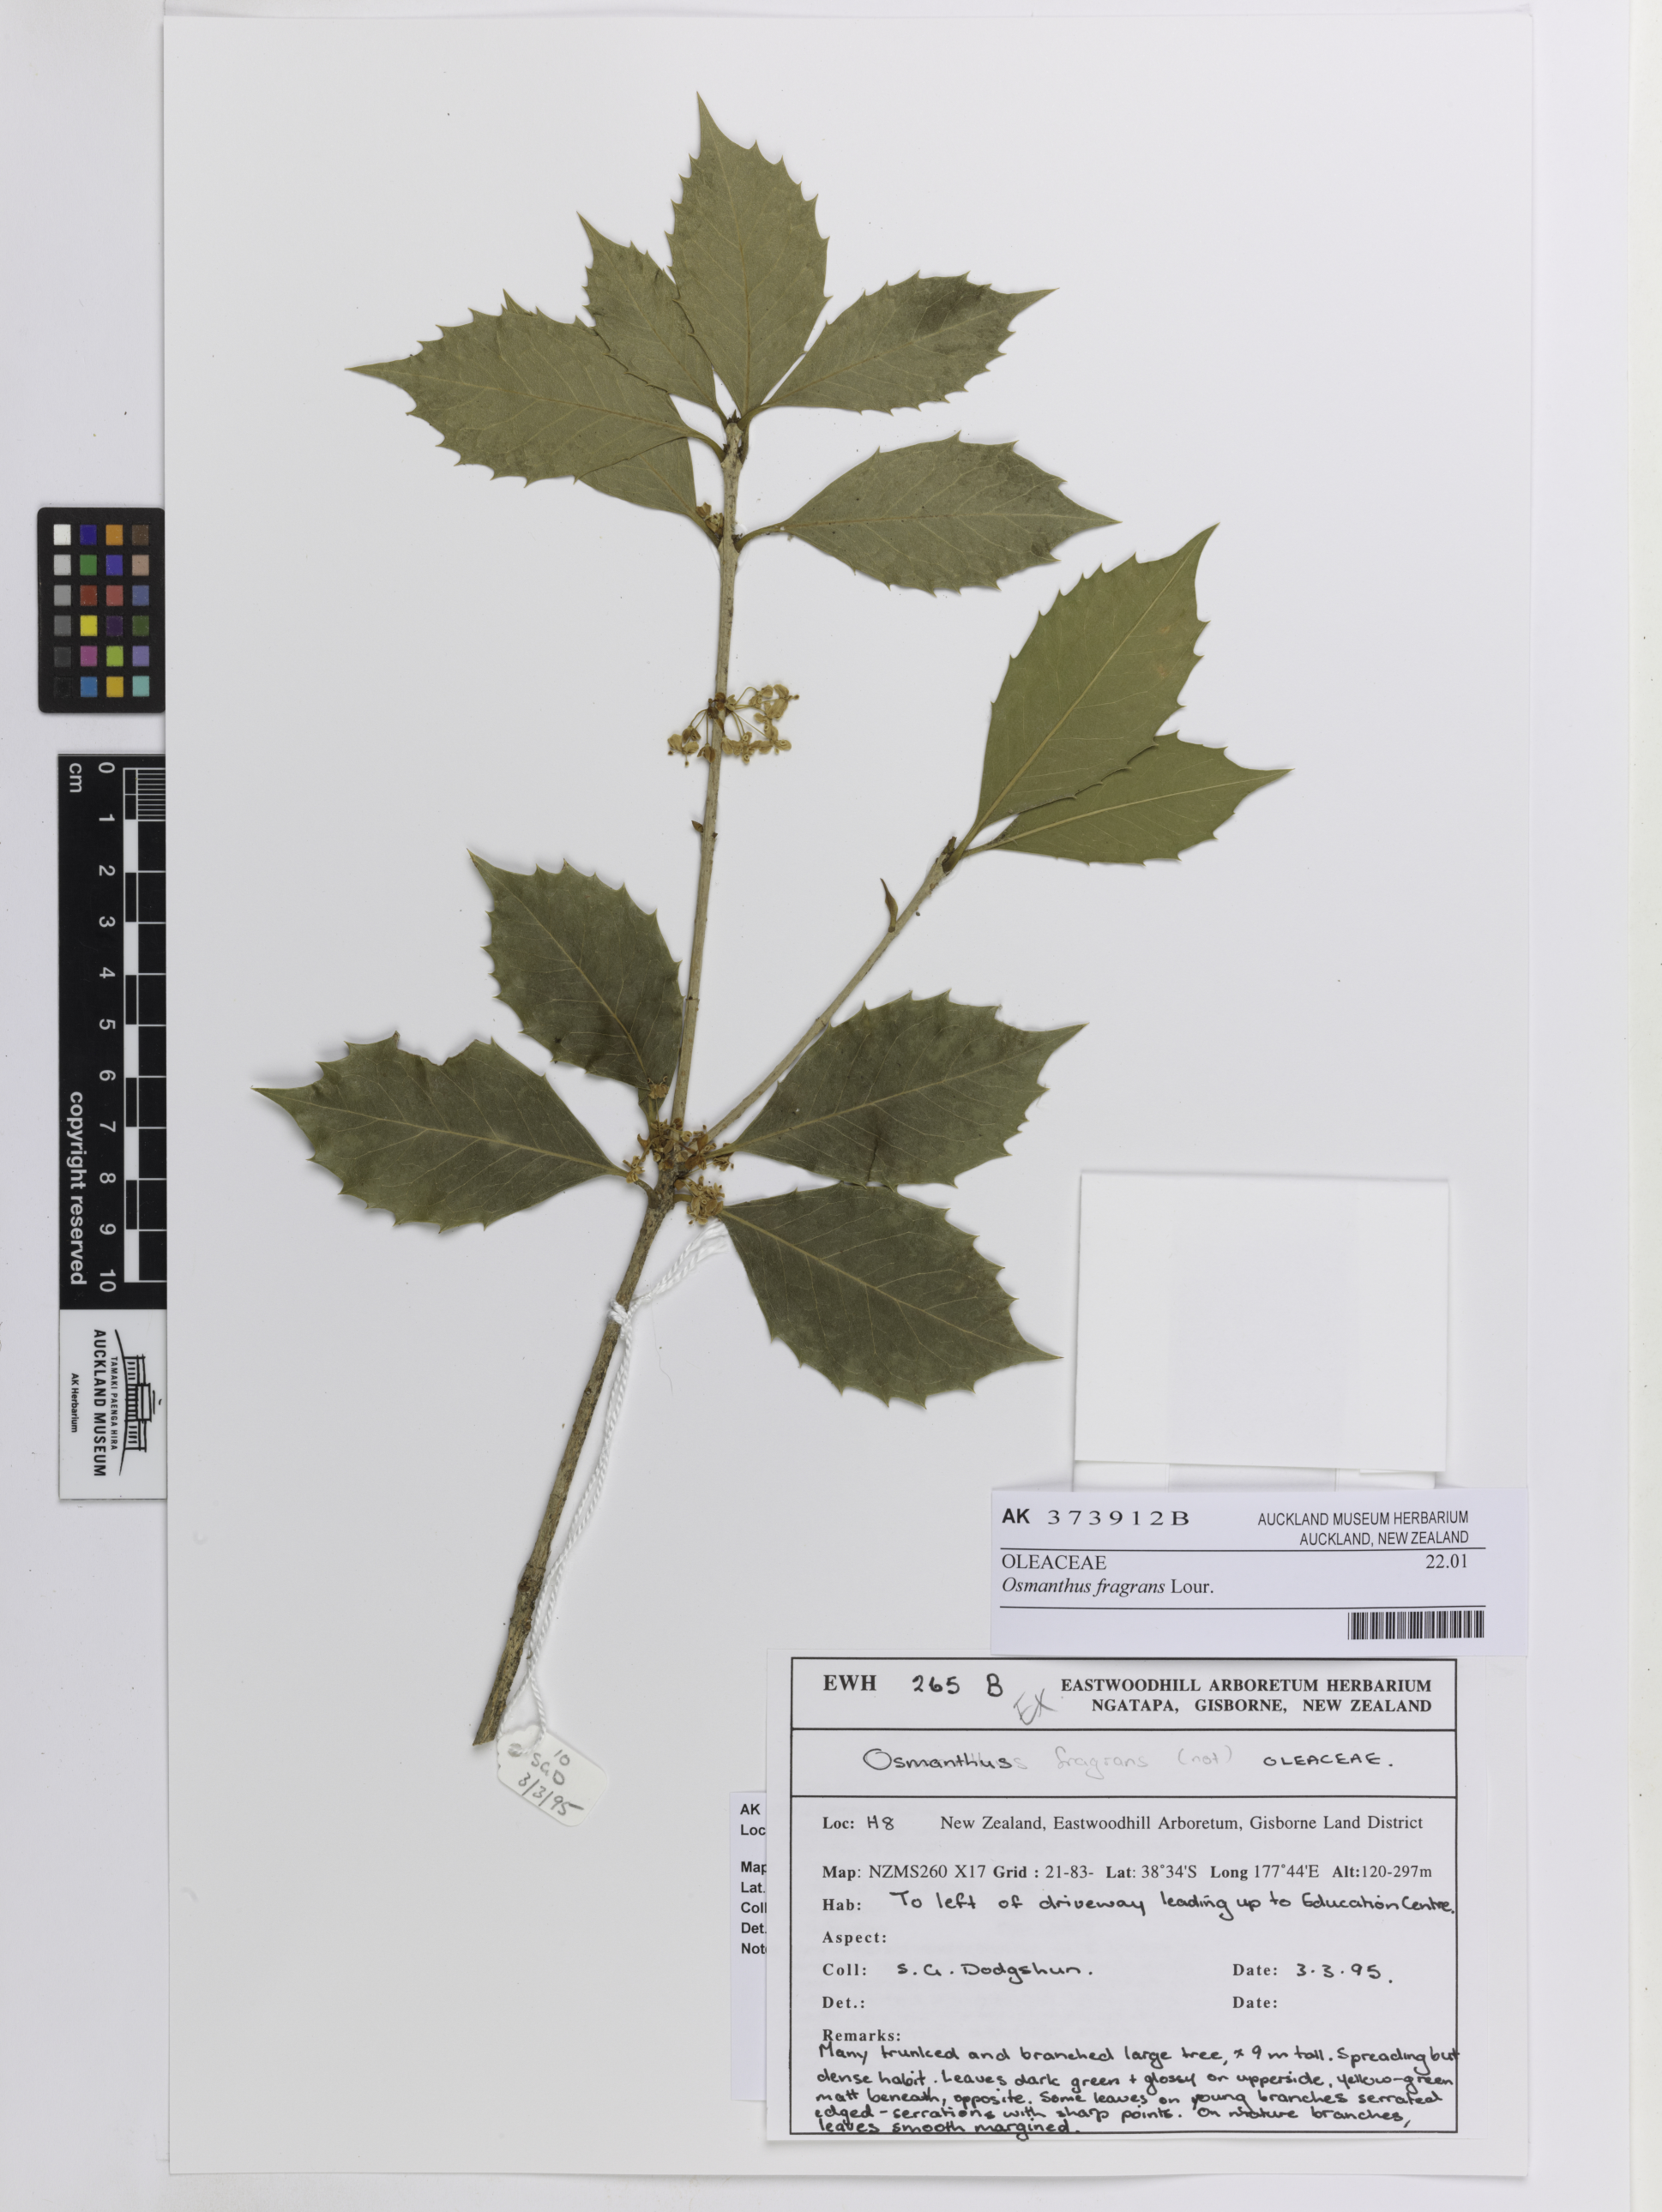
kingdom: Plantae
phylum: Tracheophyta
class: Magnoliopsida
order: Lamiales
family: Oleaceae
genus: Osmanthus
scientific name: Osmanthus fragrans
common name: Sweet osmanthus
